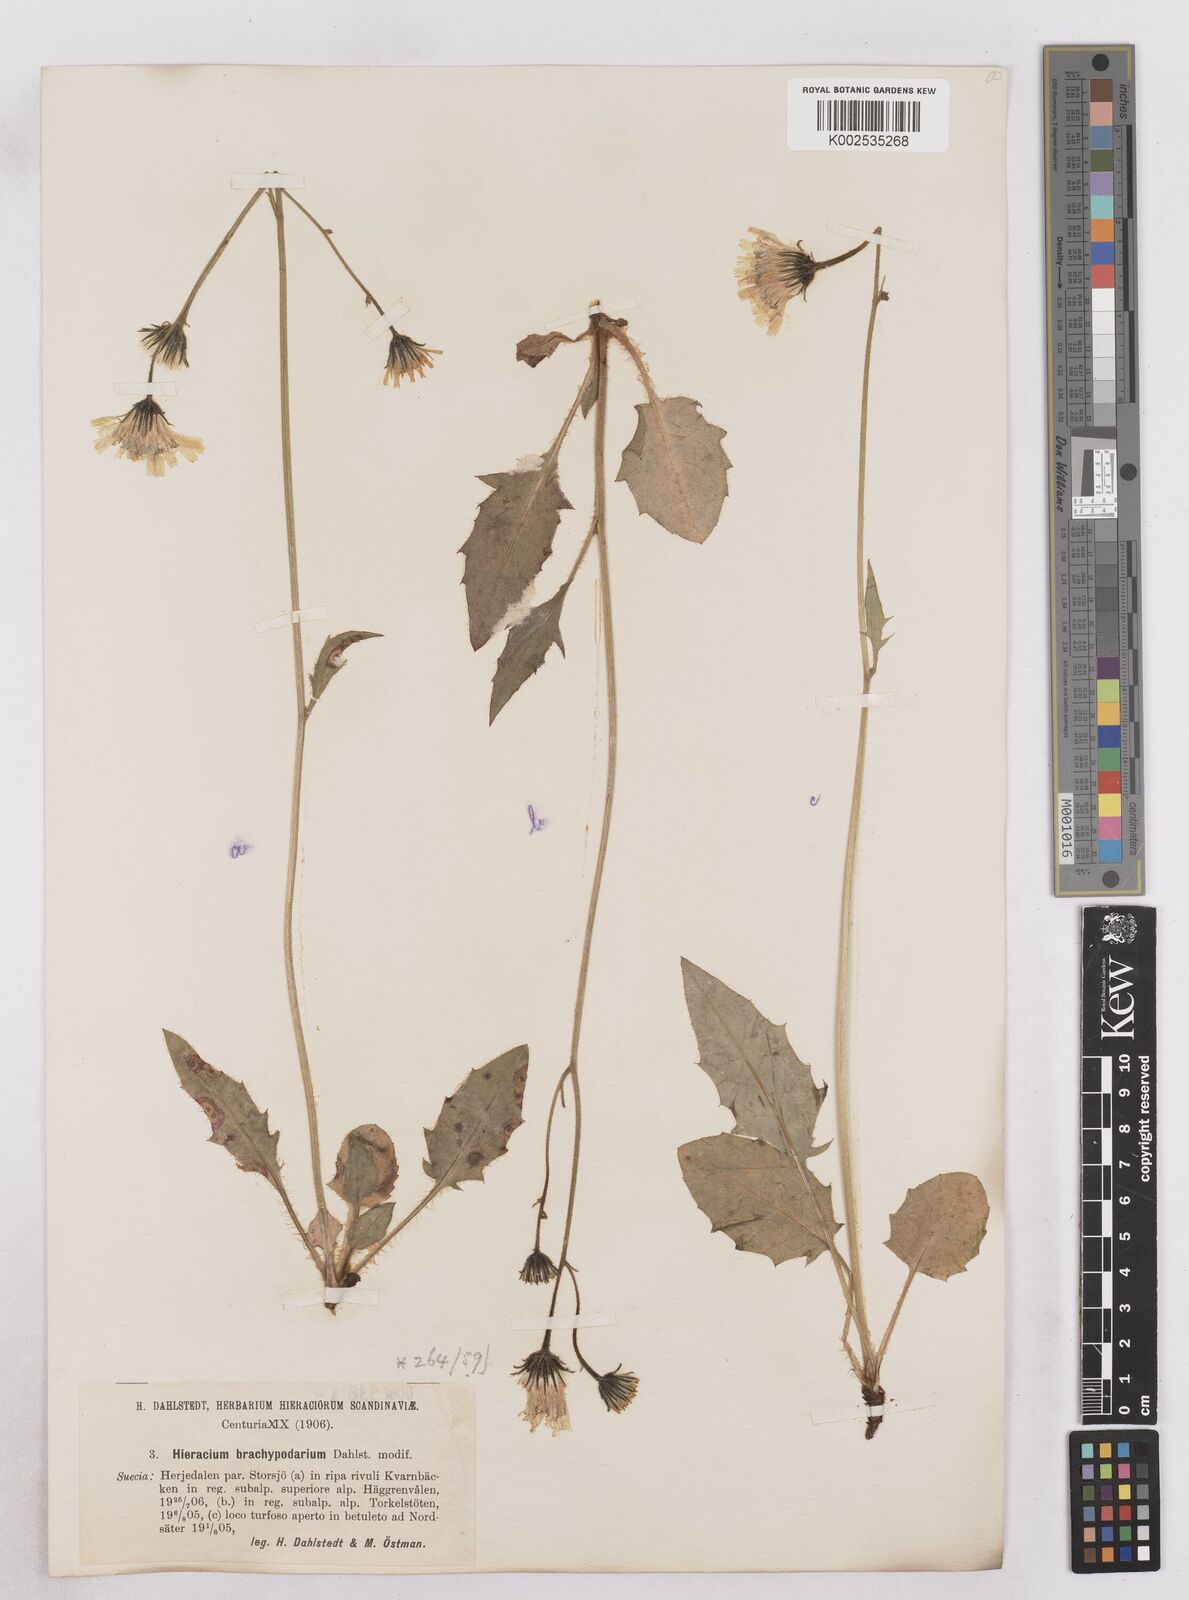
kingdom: Plantae
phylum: Tracheophyta
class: Magnoliopsida
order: Asterales
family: Asteraceae
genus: Hieracium
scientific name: Hieracium brachypodarium
